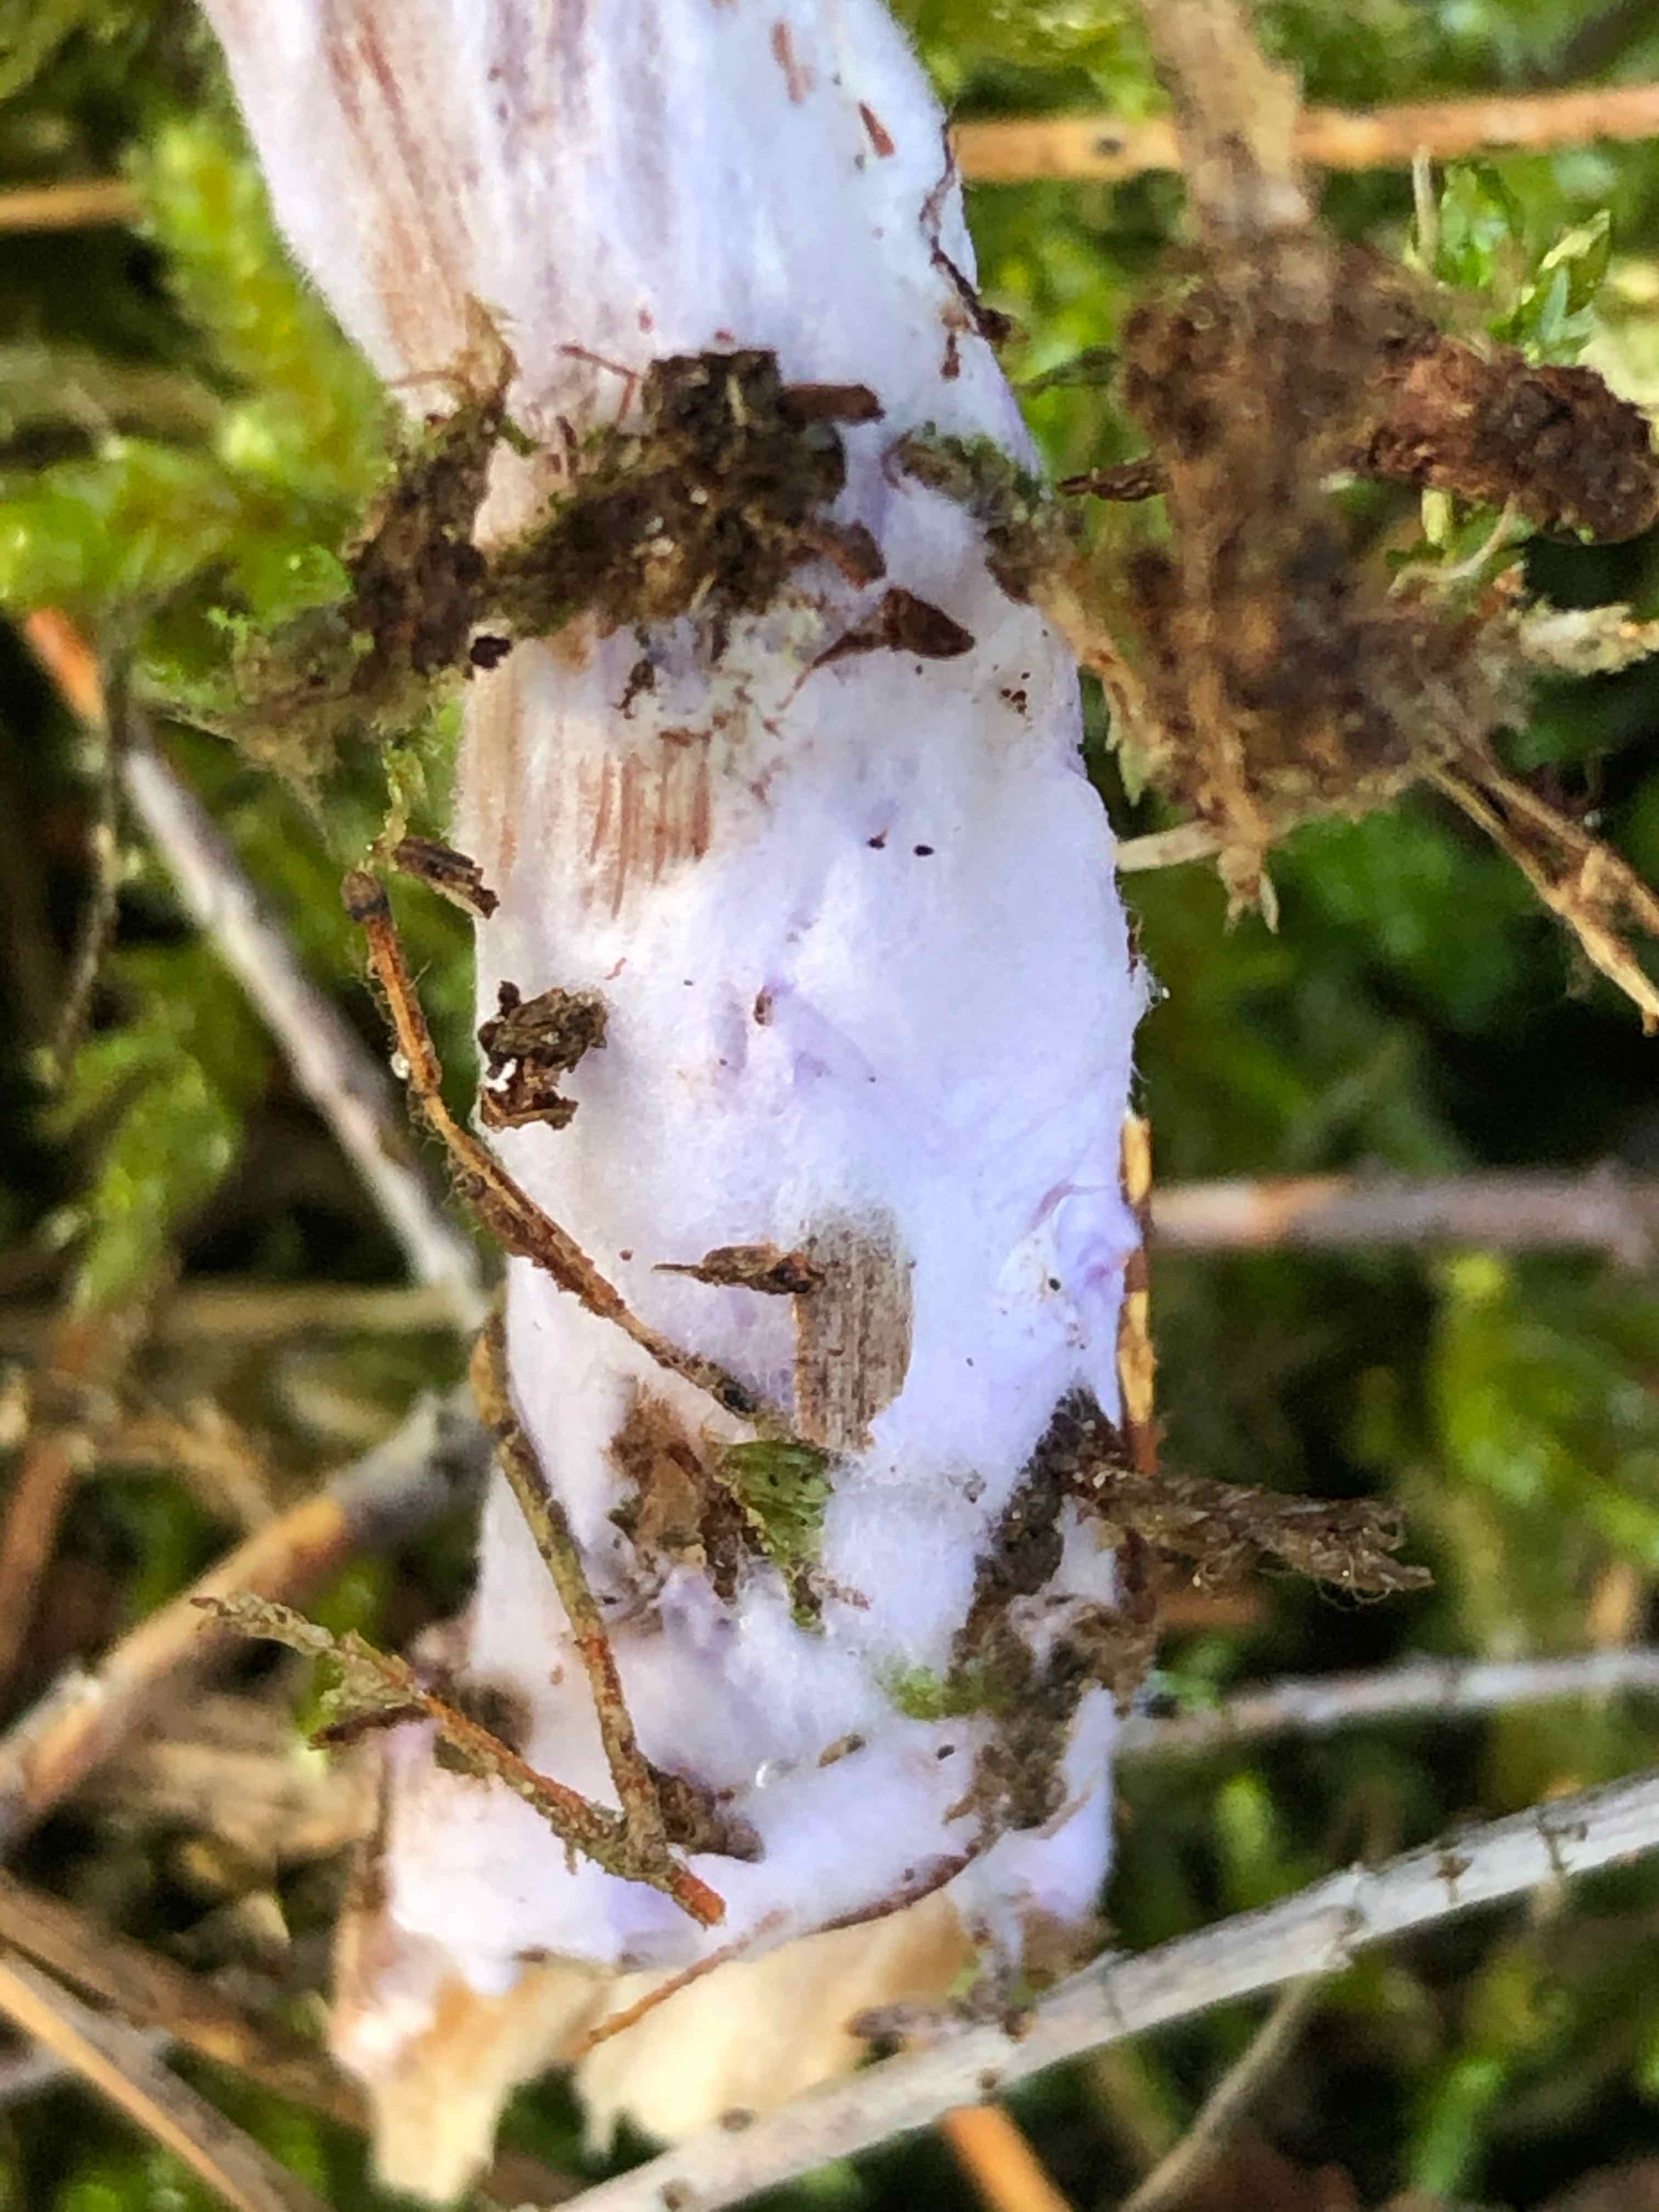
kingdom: Fungi
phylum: Basidiomycota
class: Agaricomycetes
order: Agaricales
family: Hydnangiaceae
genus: Laccaria
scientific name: Laccaria bicolor
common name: tvefarvet ametysthat
